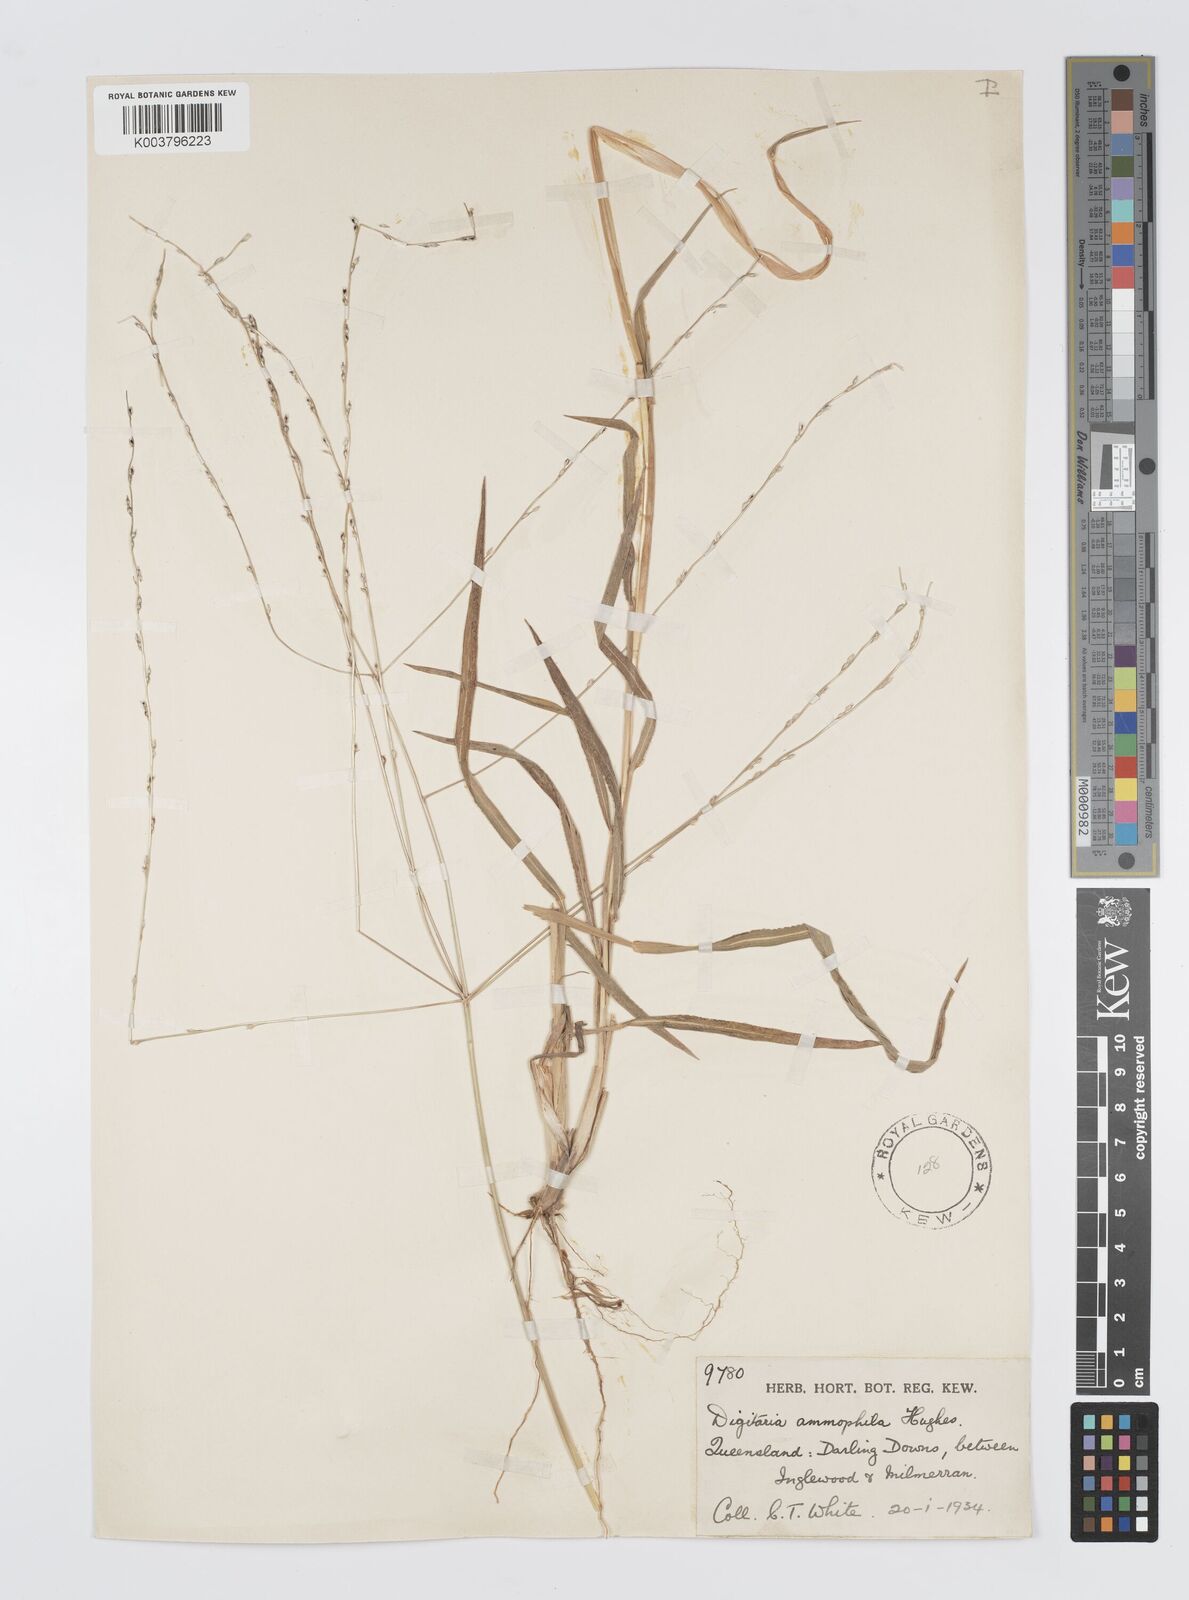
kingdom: Plantae
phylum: Tracheophyta
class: Liliopsida
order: Poales
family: Poaceae
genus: Digitaria
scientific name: Digitaria ammophila
